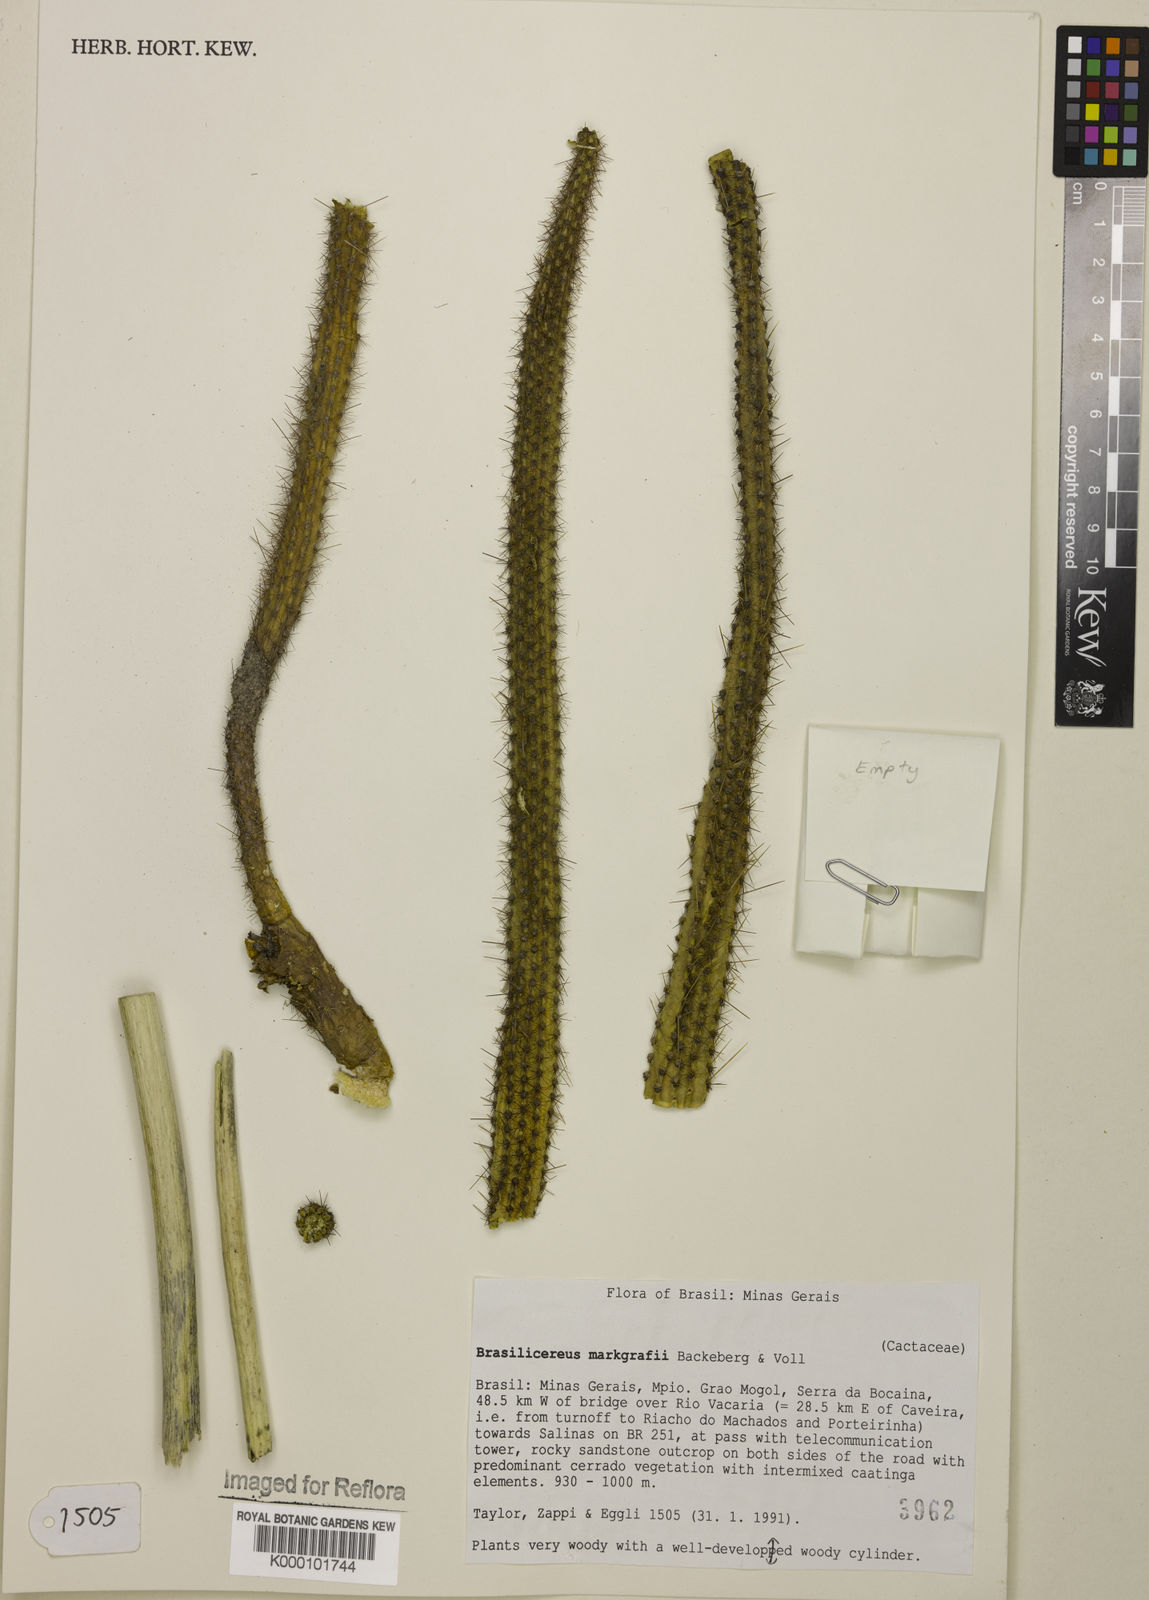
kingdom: Plantae
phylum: Tracheophyta
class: Magnoliopsida
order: Caryophyllales
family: Cactaceae
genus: Brasilicereus
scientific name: Brasilicereus markgrafii
